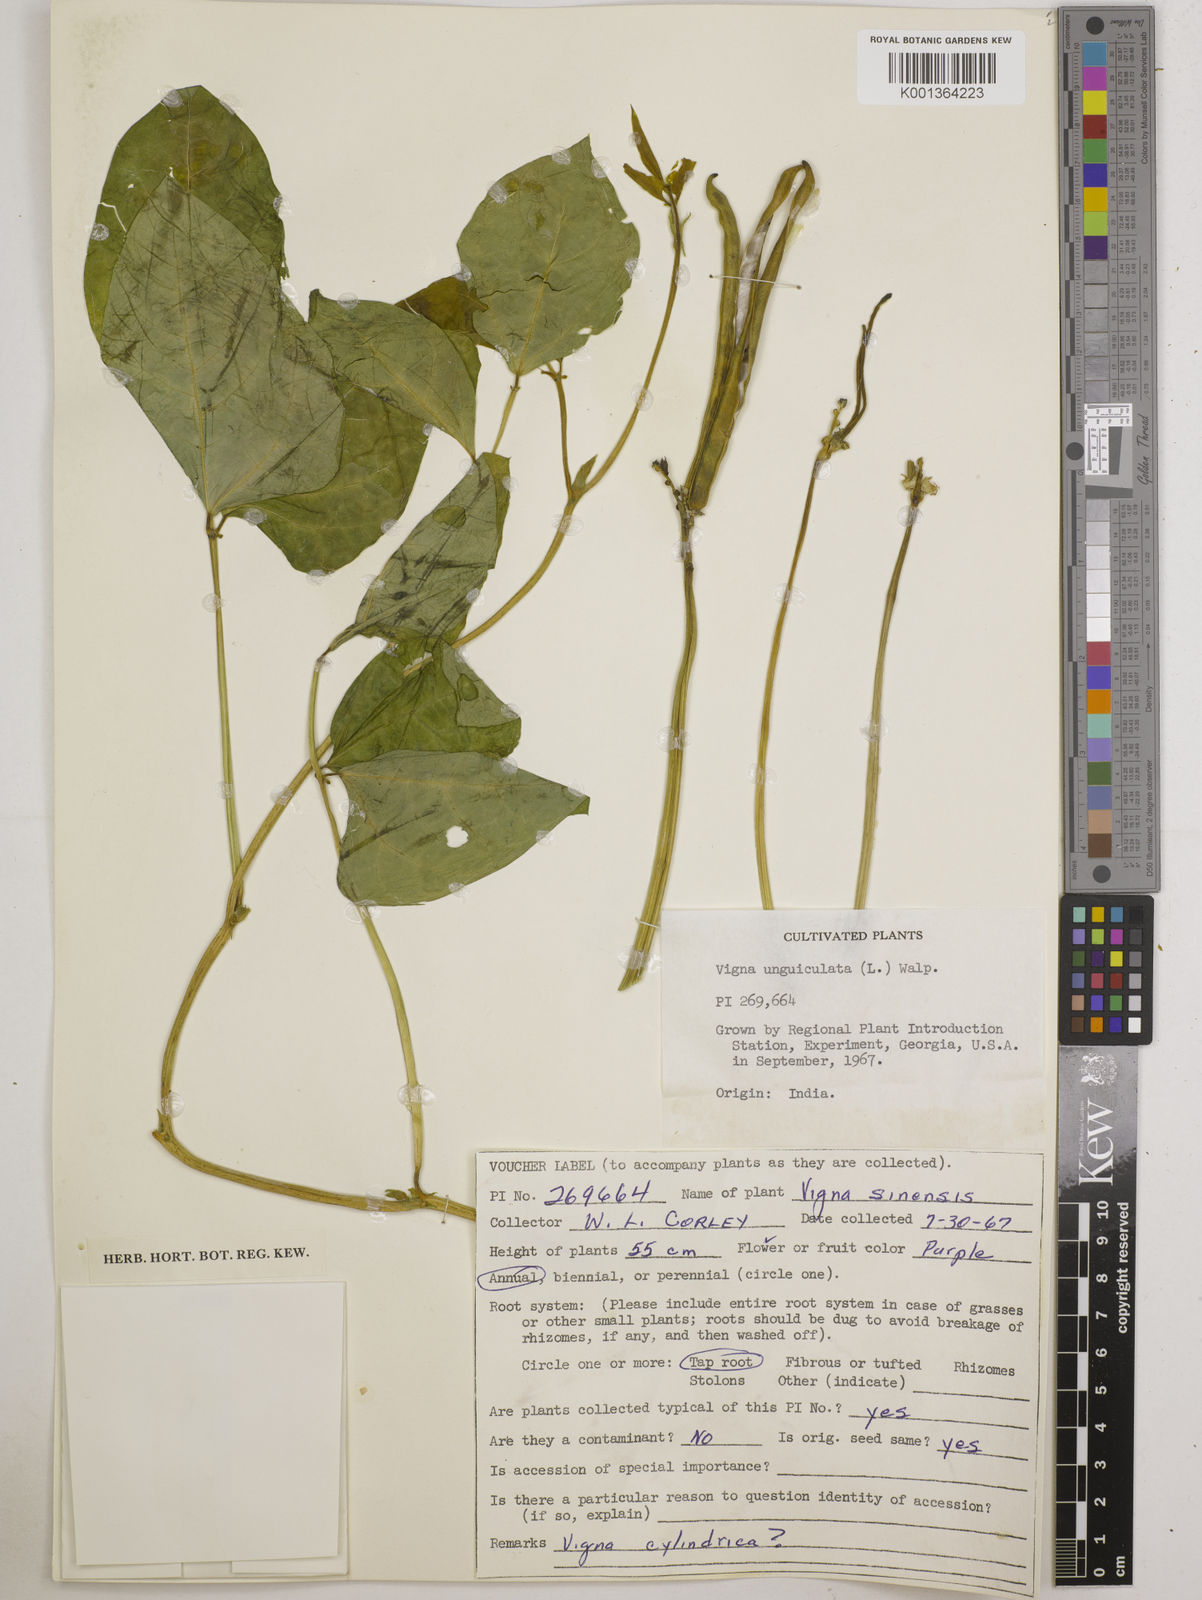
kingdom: Plantae
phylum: Tracheophyta
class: Magnoliopsida
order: Fabales
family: Fabaceae
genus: Vigna
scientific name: Vigna
